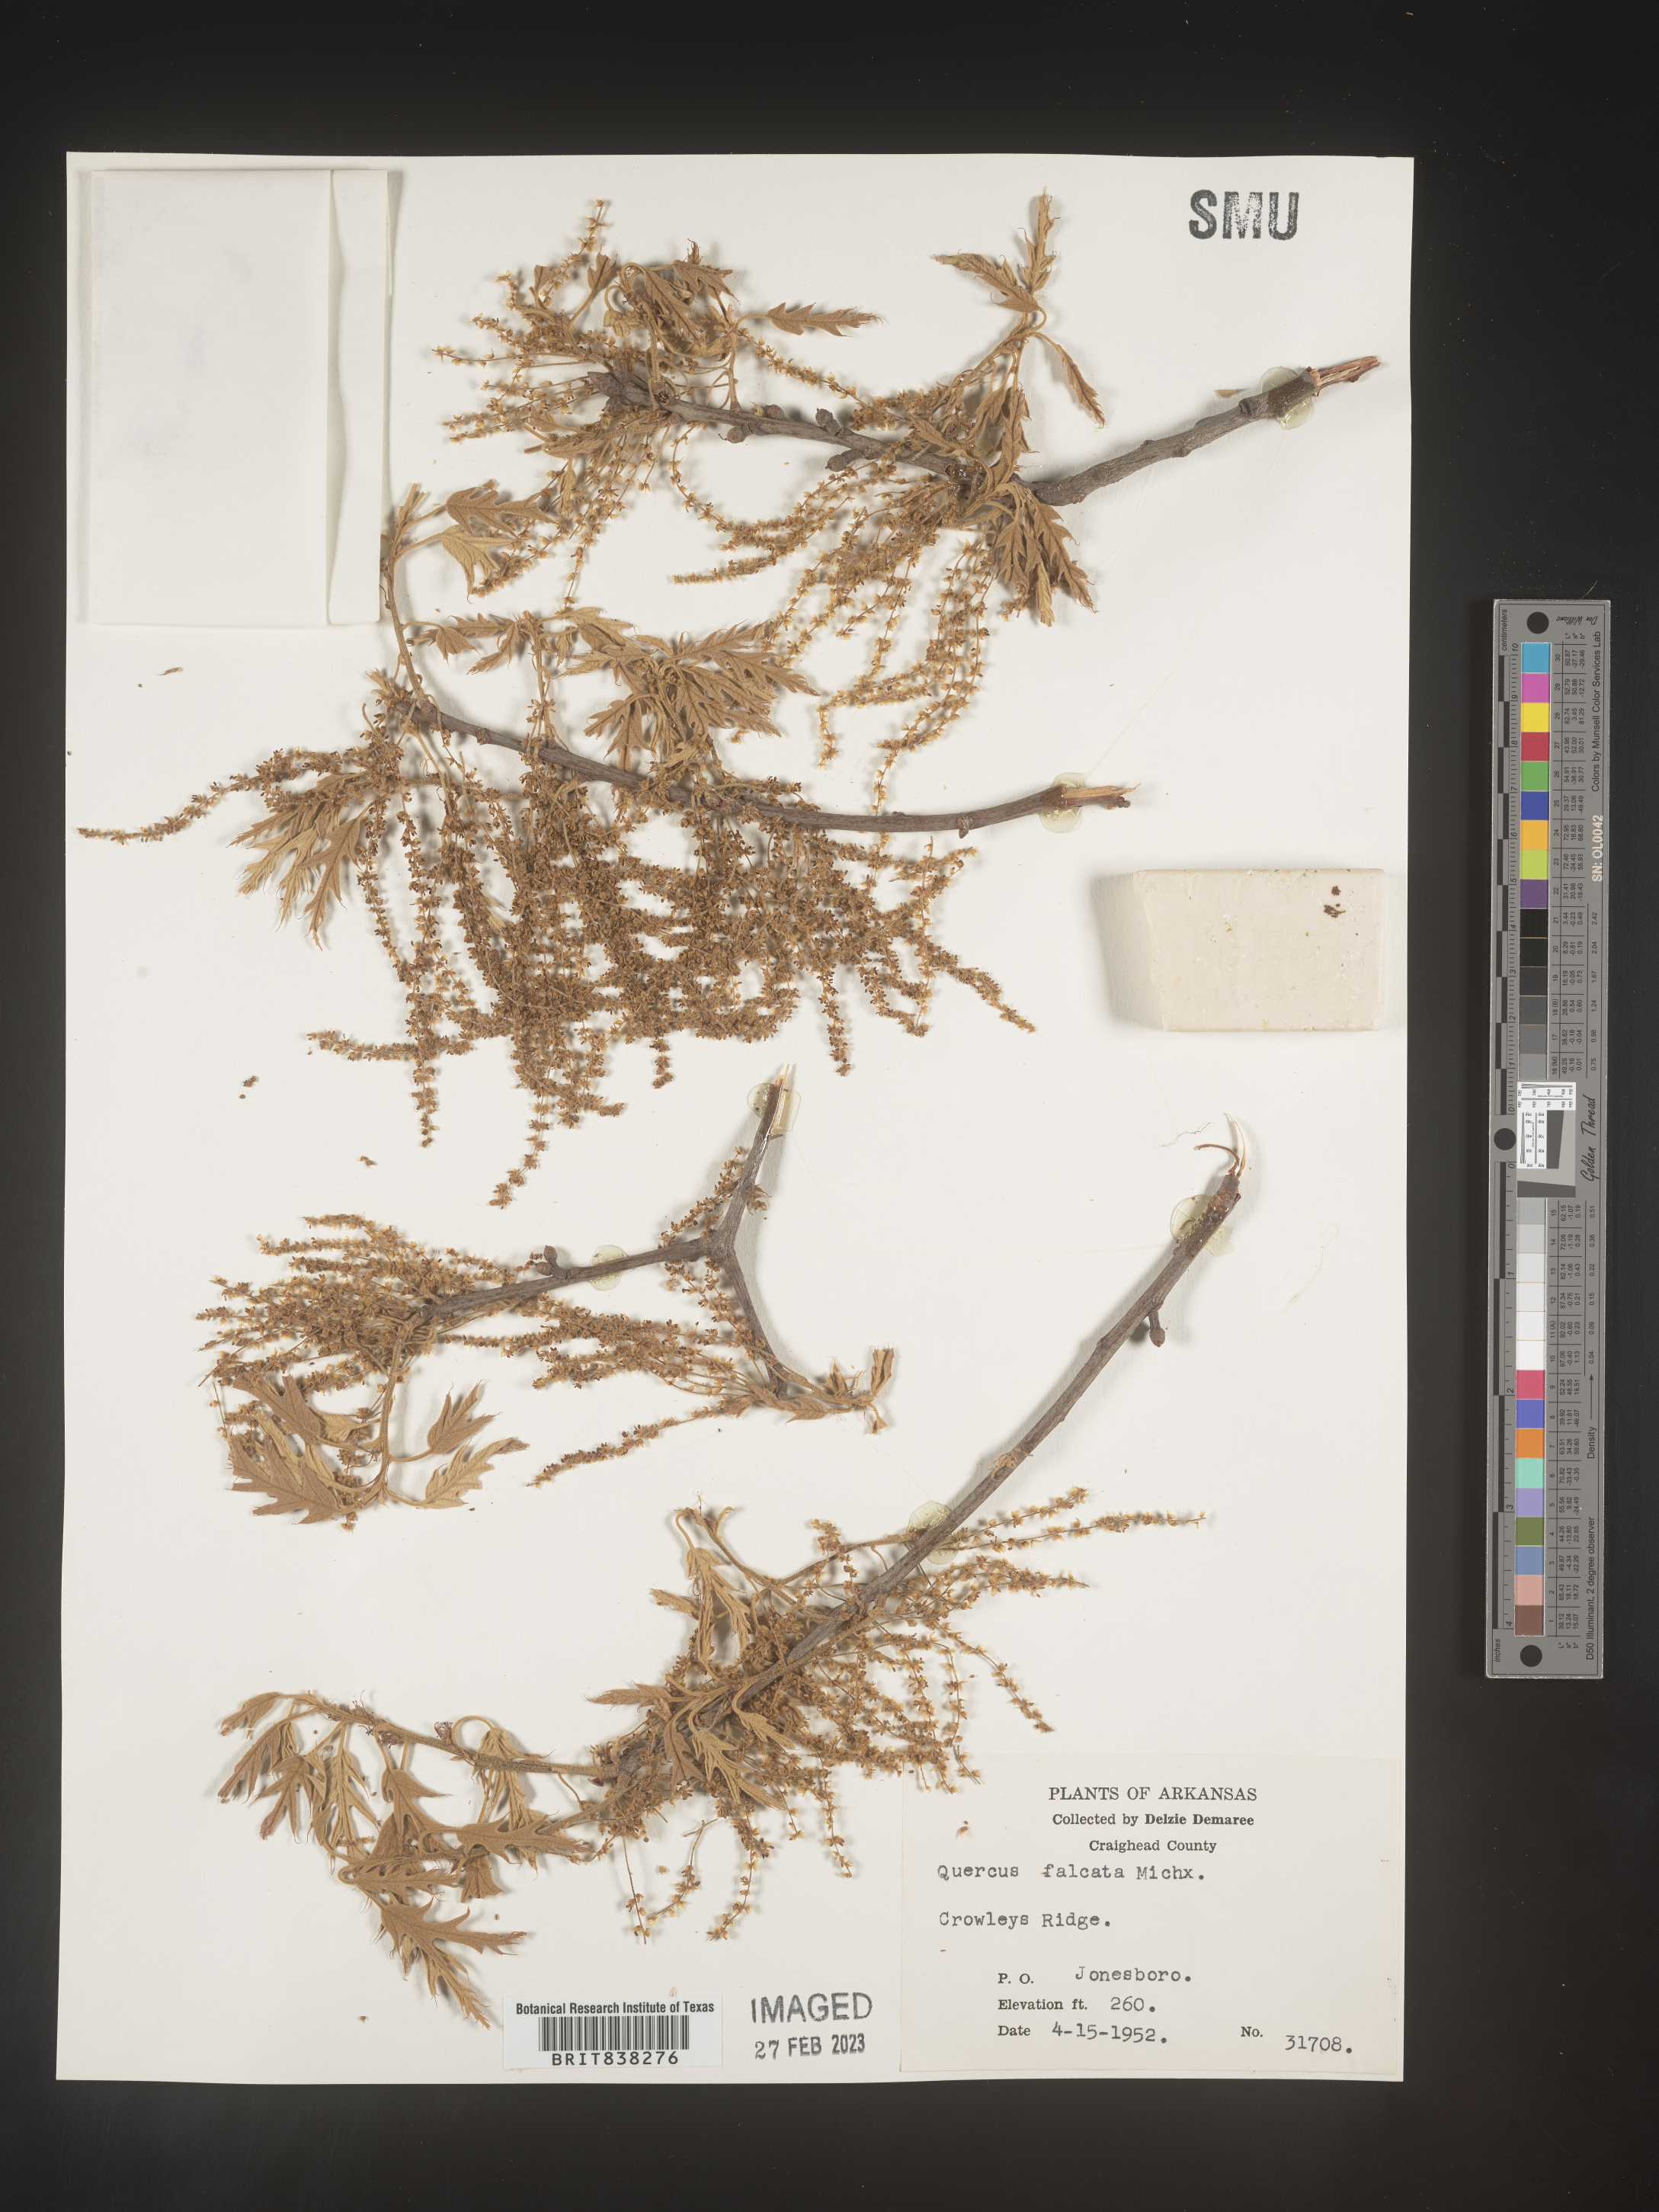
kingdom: Plantae
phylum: Tracheophyta
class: Magnoliopsida
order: Fagales
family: Fagaceae
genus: Quercus
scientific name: Quercus falcata
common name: Southern red oak
